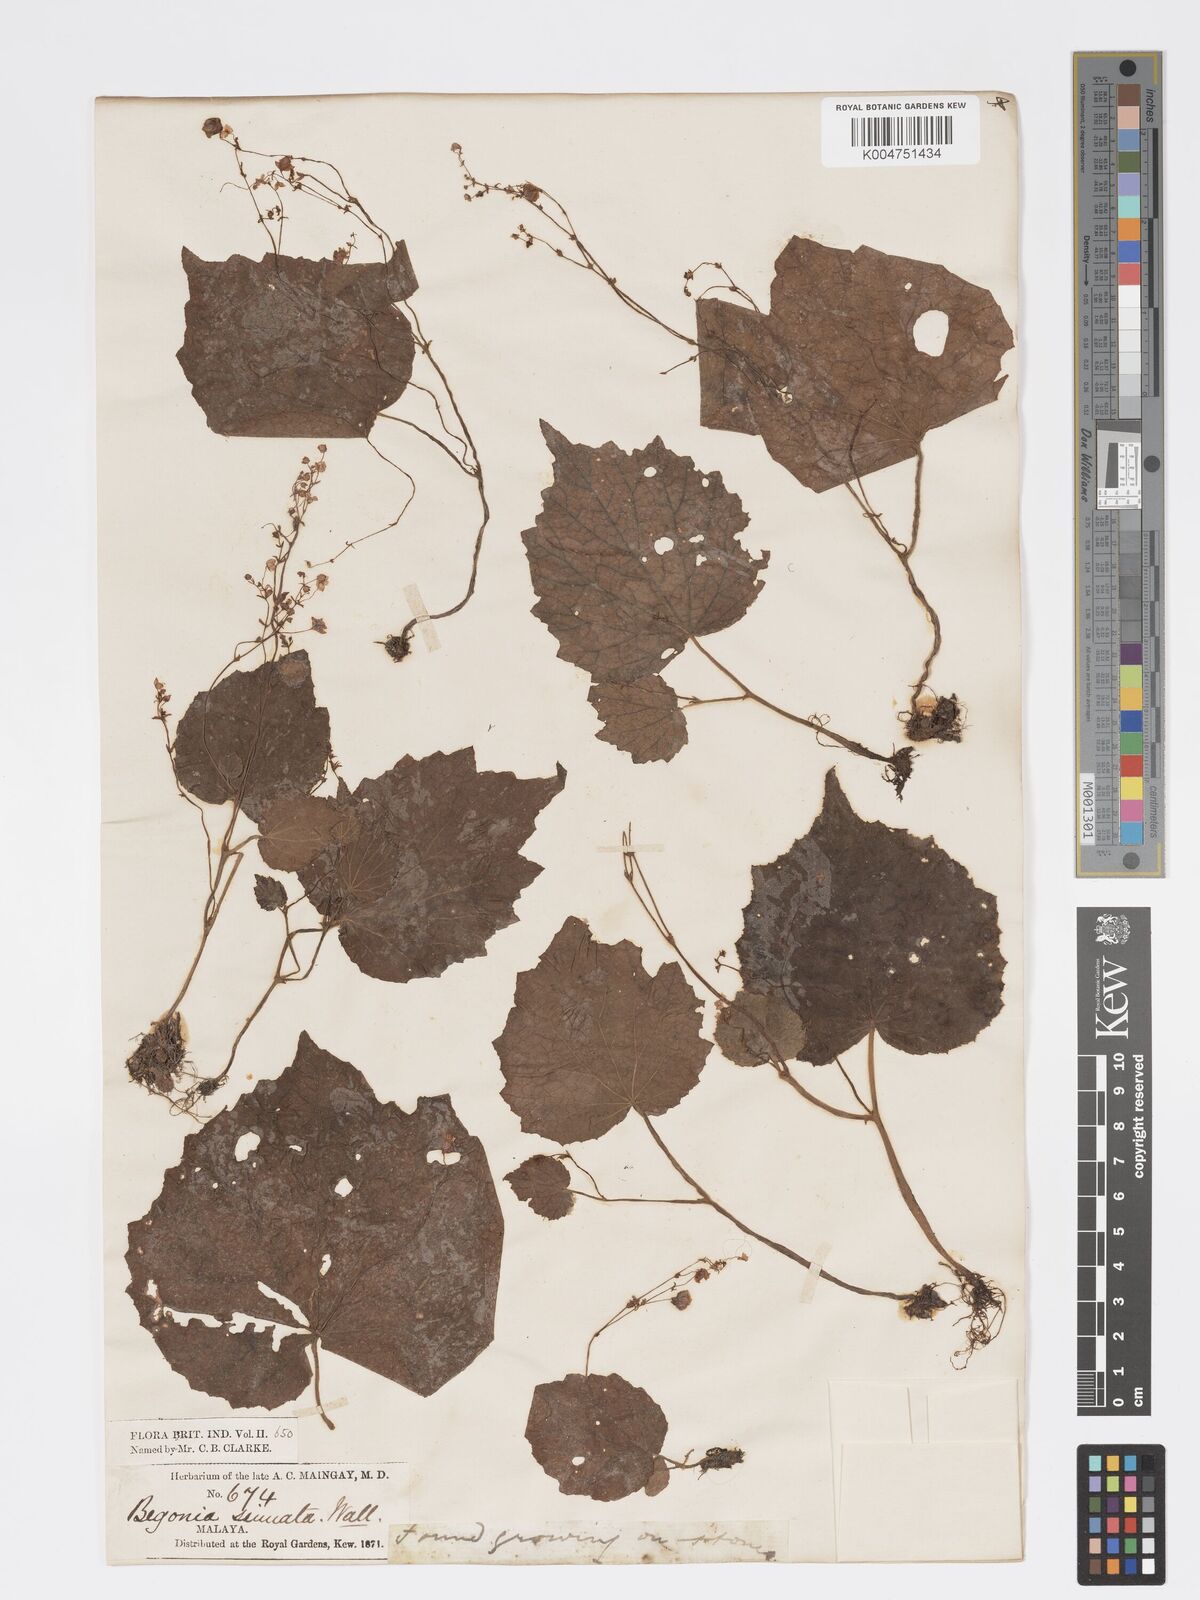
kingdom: Plantae
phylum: Tracheophyta
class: Magnoliopsida
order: Cucurbitales
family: Begoniaceae
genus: Begonia
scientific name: Begonia
